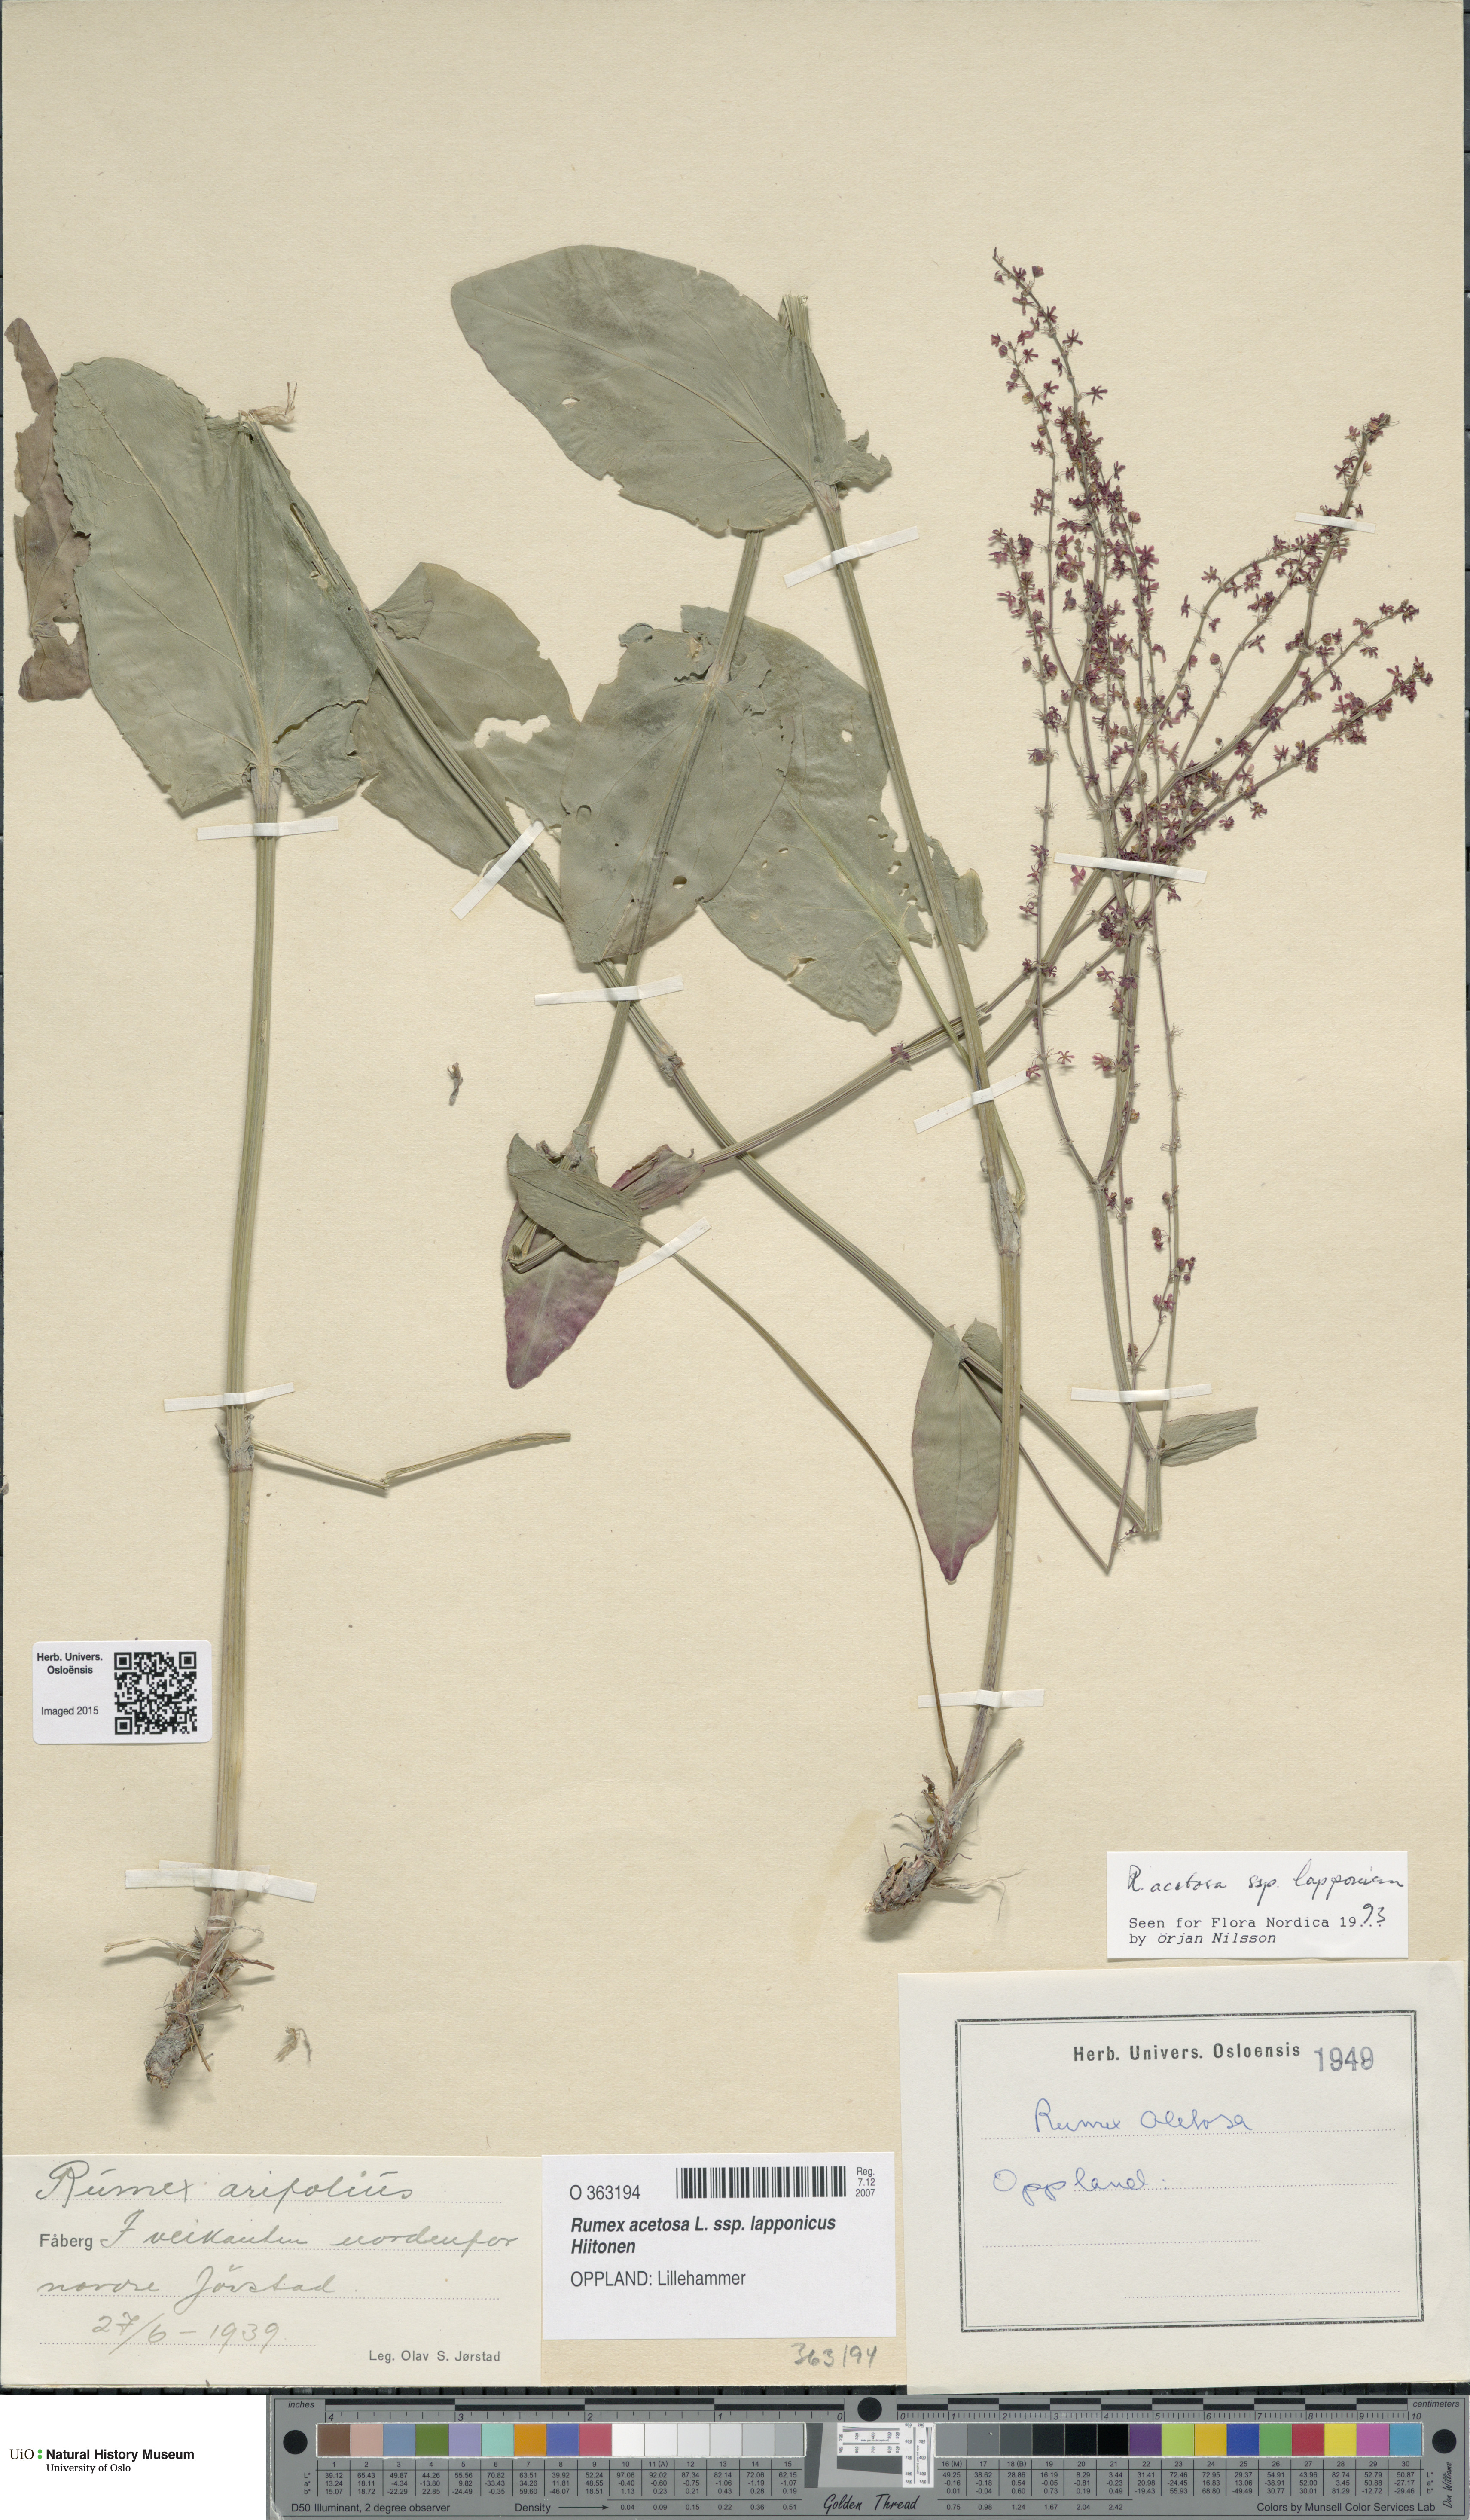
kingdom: Plantae
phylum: Tracheophyta
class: Magnoliopsida
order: Caryophyllales
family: Polygonaceae
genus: Rumex
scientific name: Rumex lapponicus
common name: Lapland mountain sorrel
